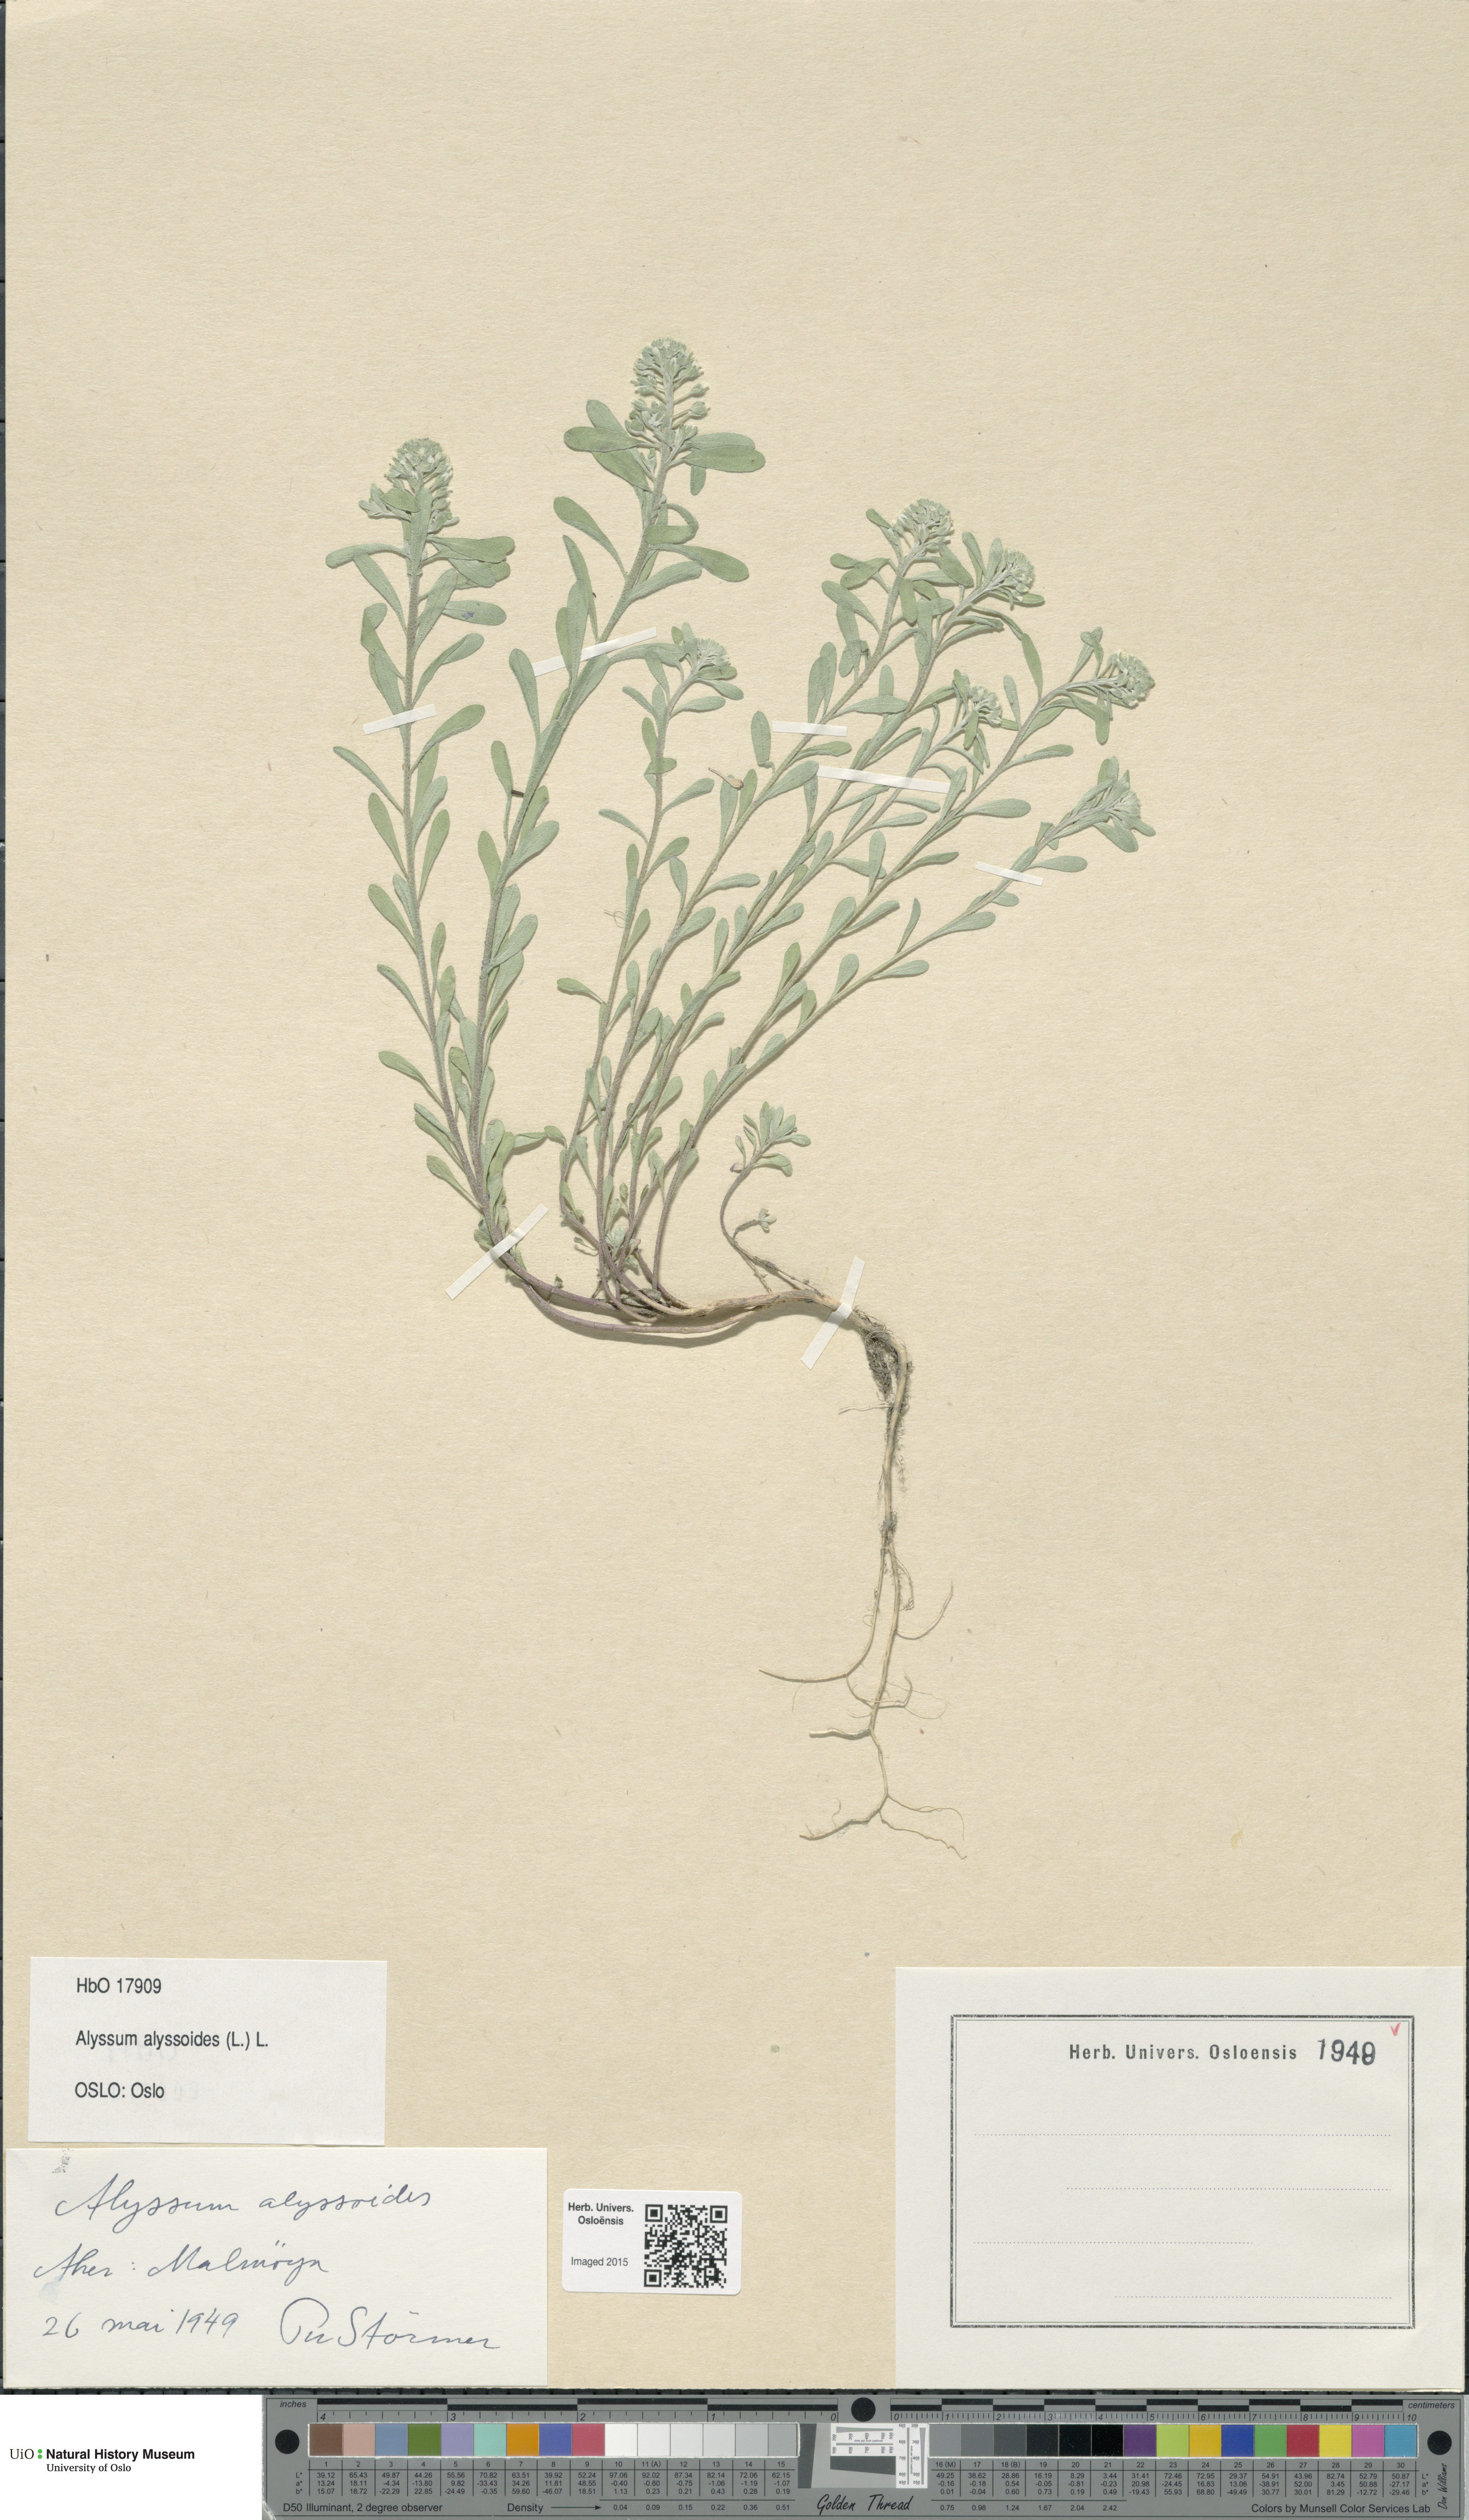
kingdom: Plantae
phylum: Tracheophyta
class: Magnoliopsida
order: Brassicales
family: Brassicaceae
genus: Alyssum
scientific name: Alyssum alyssoides
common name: Small alison
